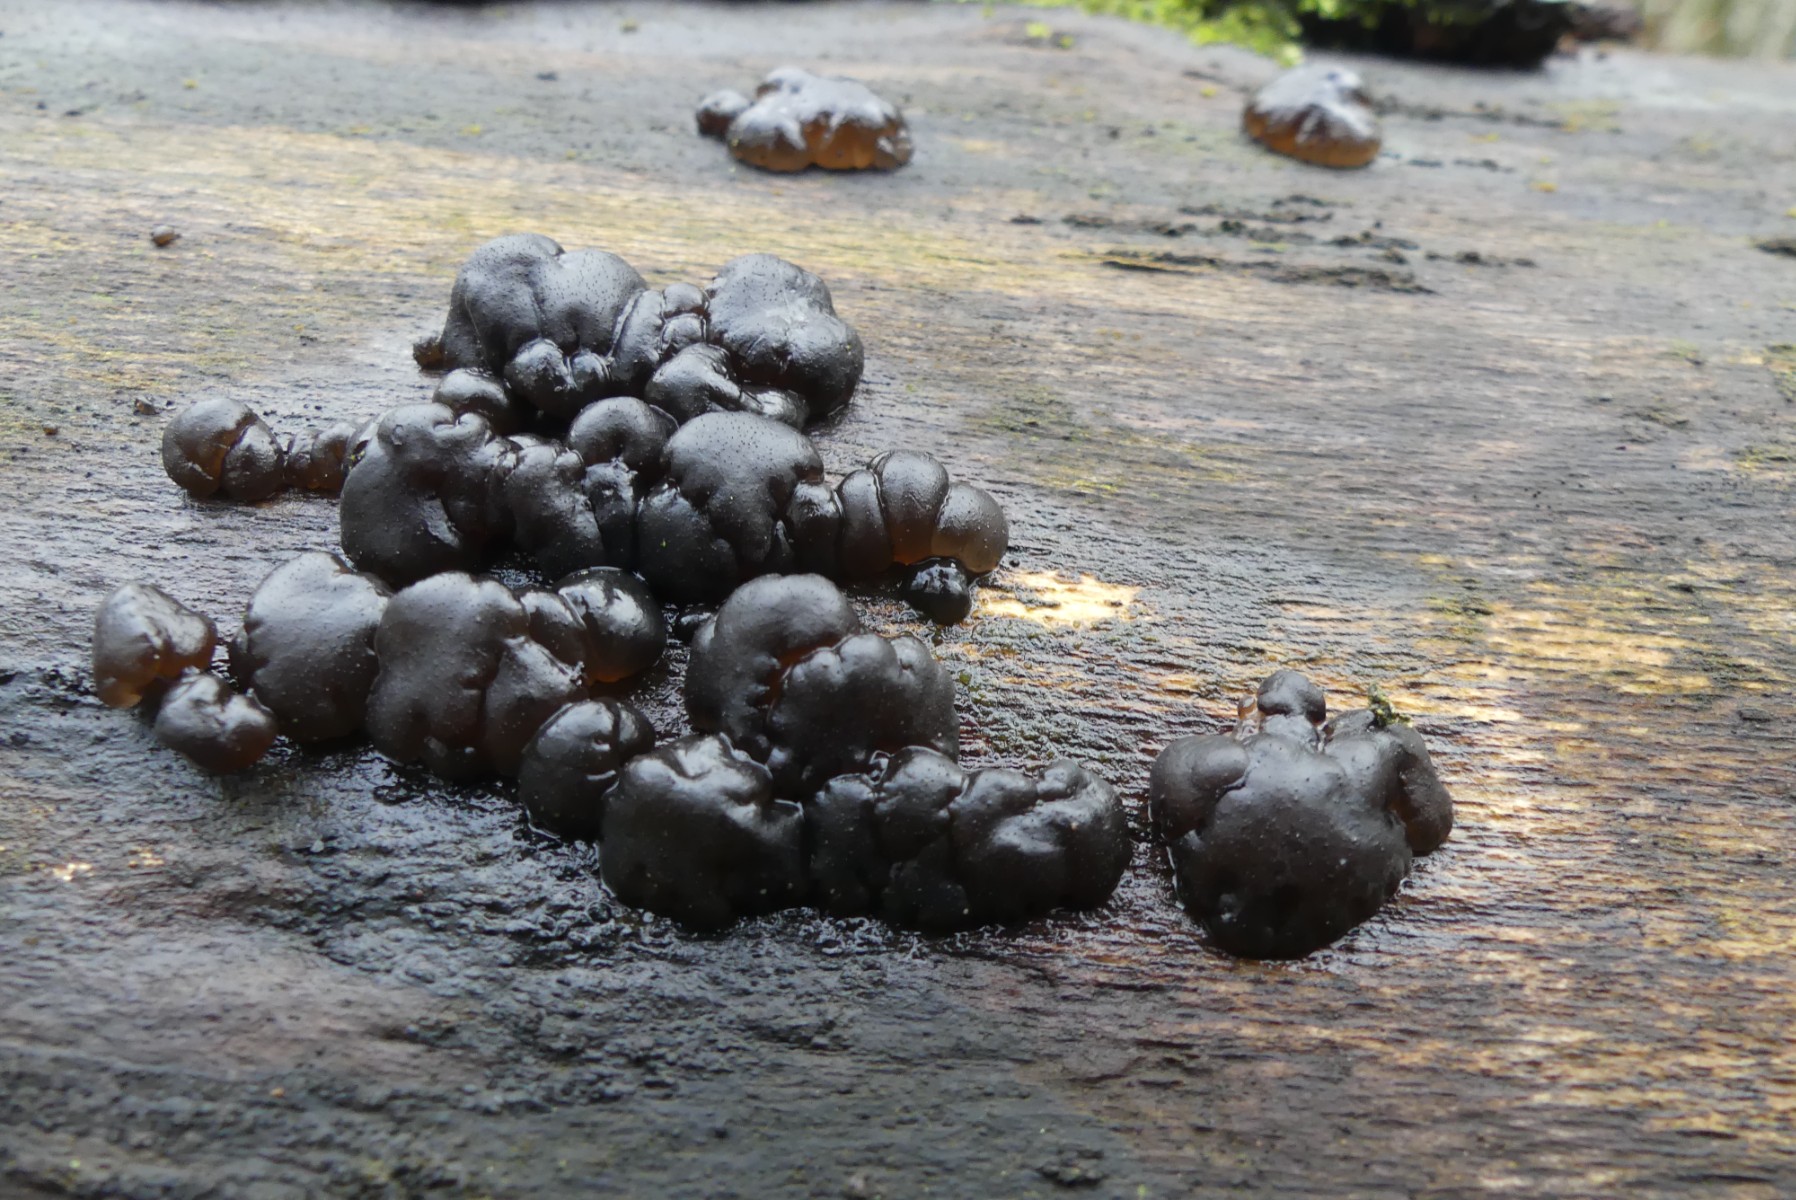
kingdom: Fungi
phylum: Basidiomycota
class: Agaricomycetes
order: Auriculariales
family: Auriculariaceae
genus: Exidia
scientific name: Exidia nigricans
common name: almindelig bævretop
